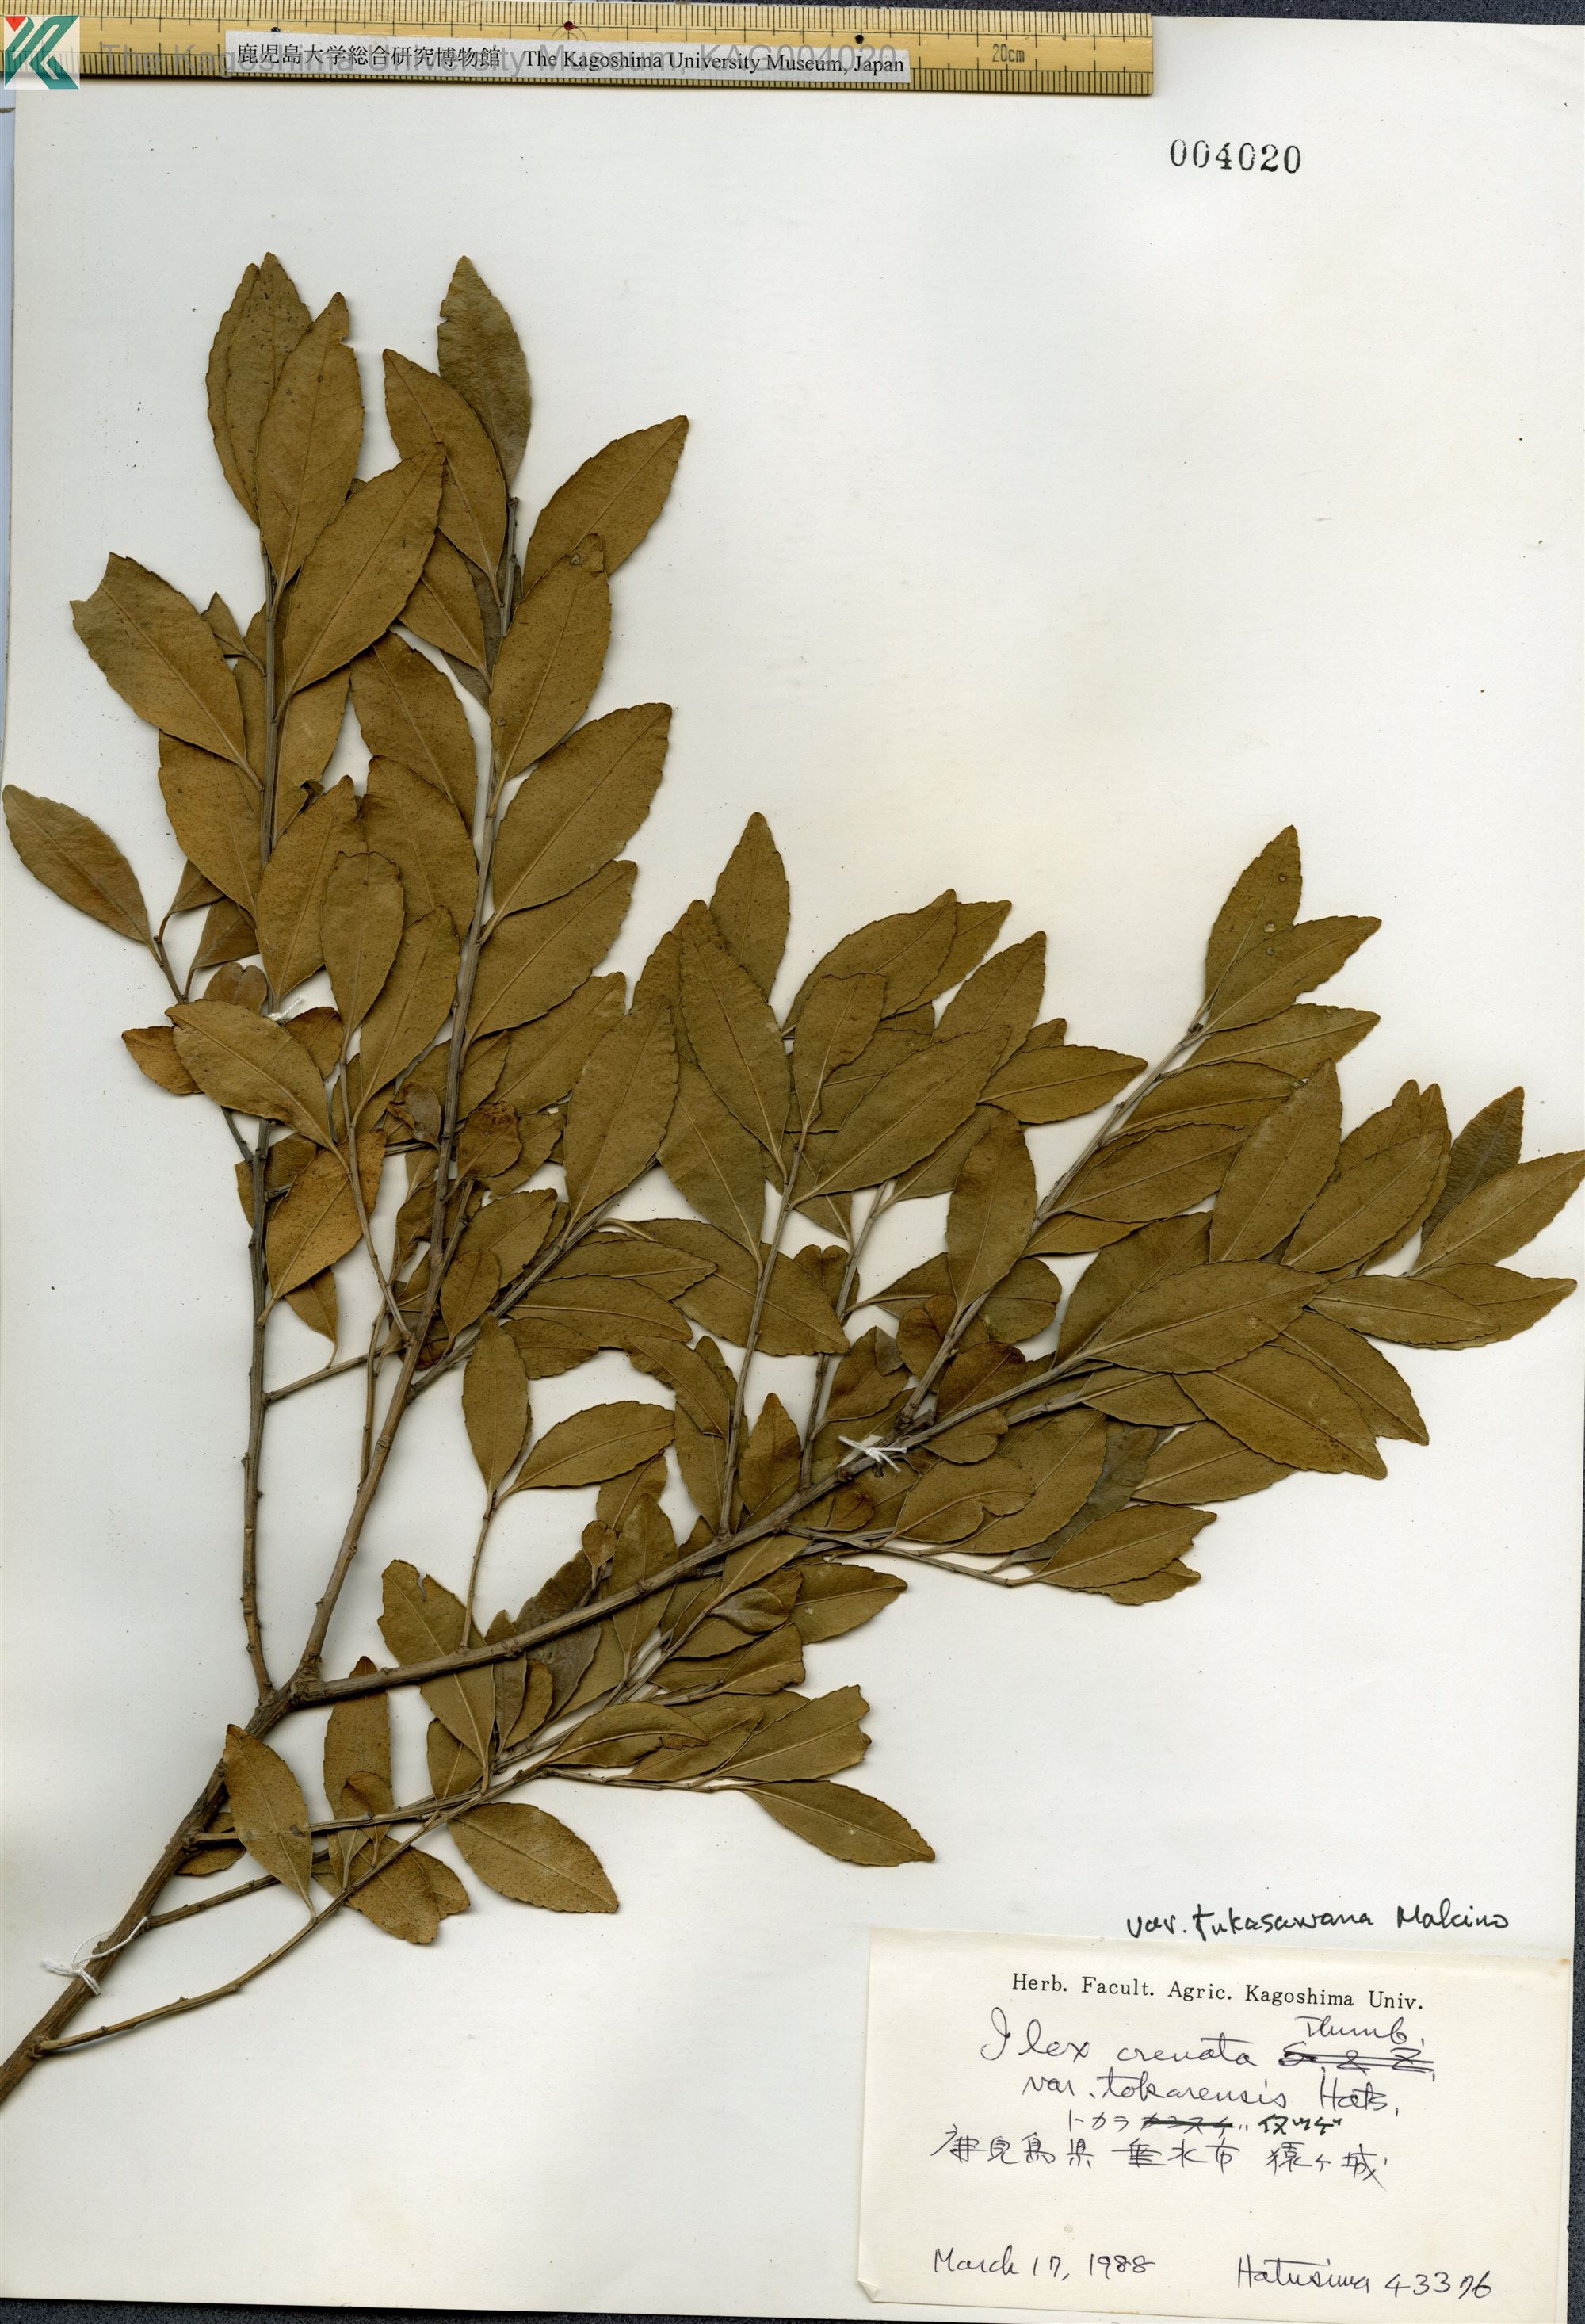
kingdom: Plantae
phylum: Tracheophyta
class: Magnoliopsida
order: Aquifoliales
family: Aquifoliaceae
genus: Ilex
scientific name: Ilex crenata
